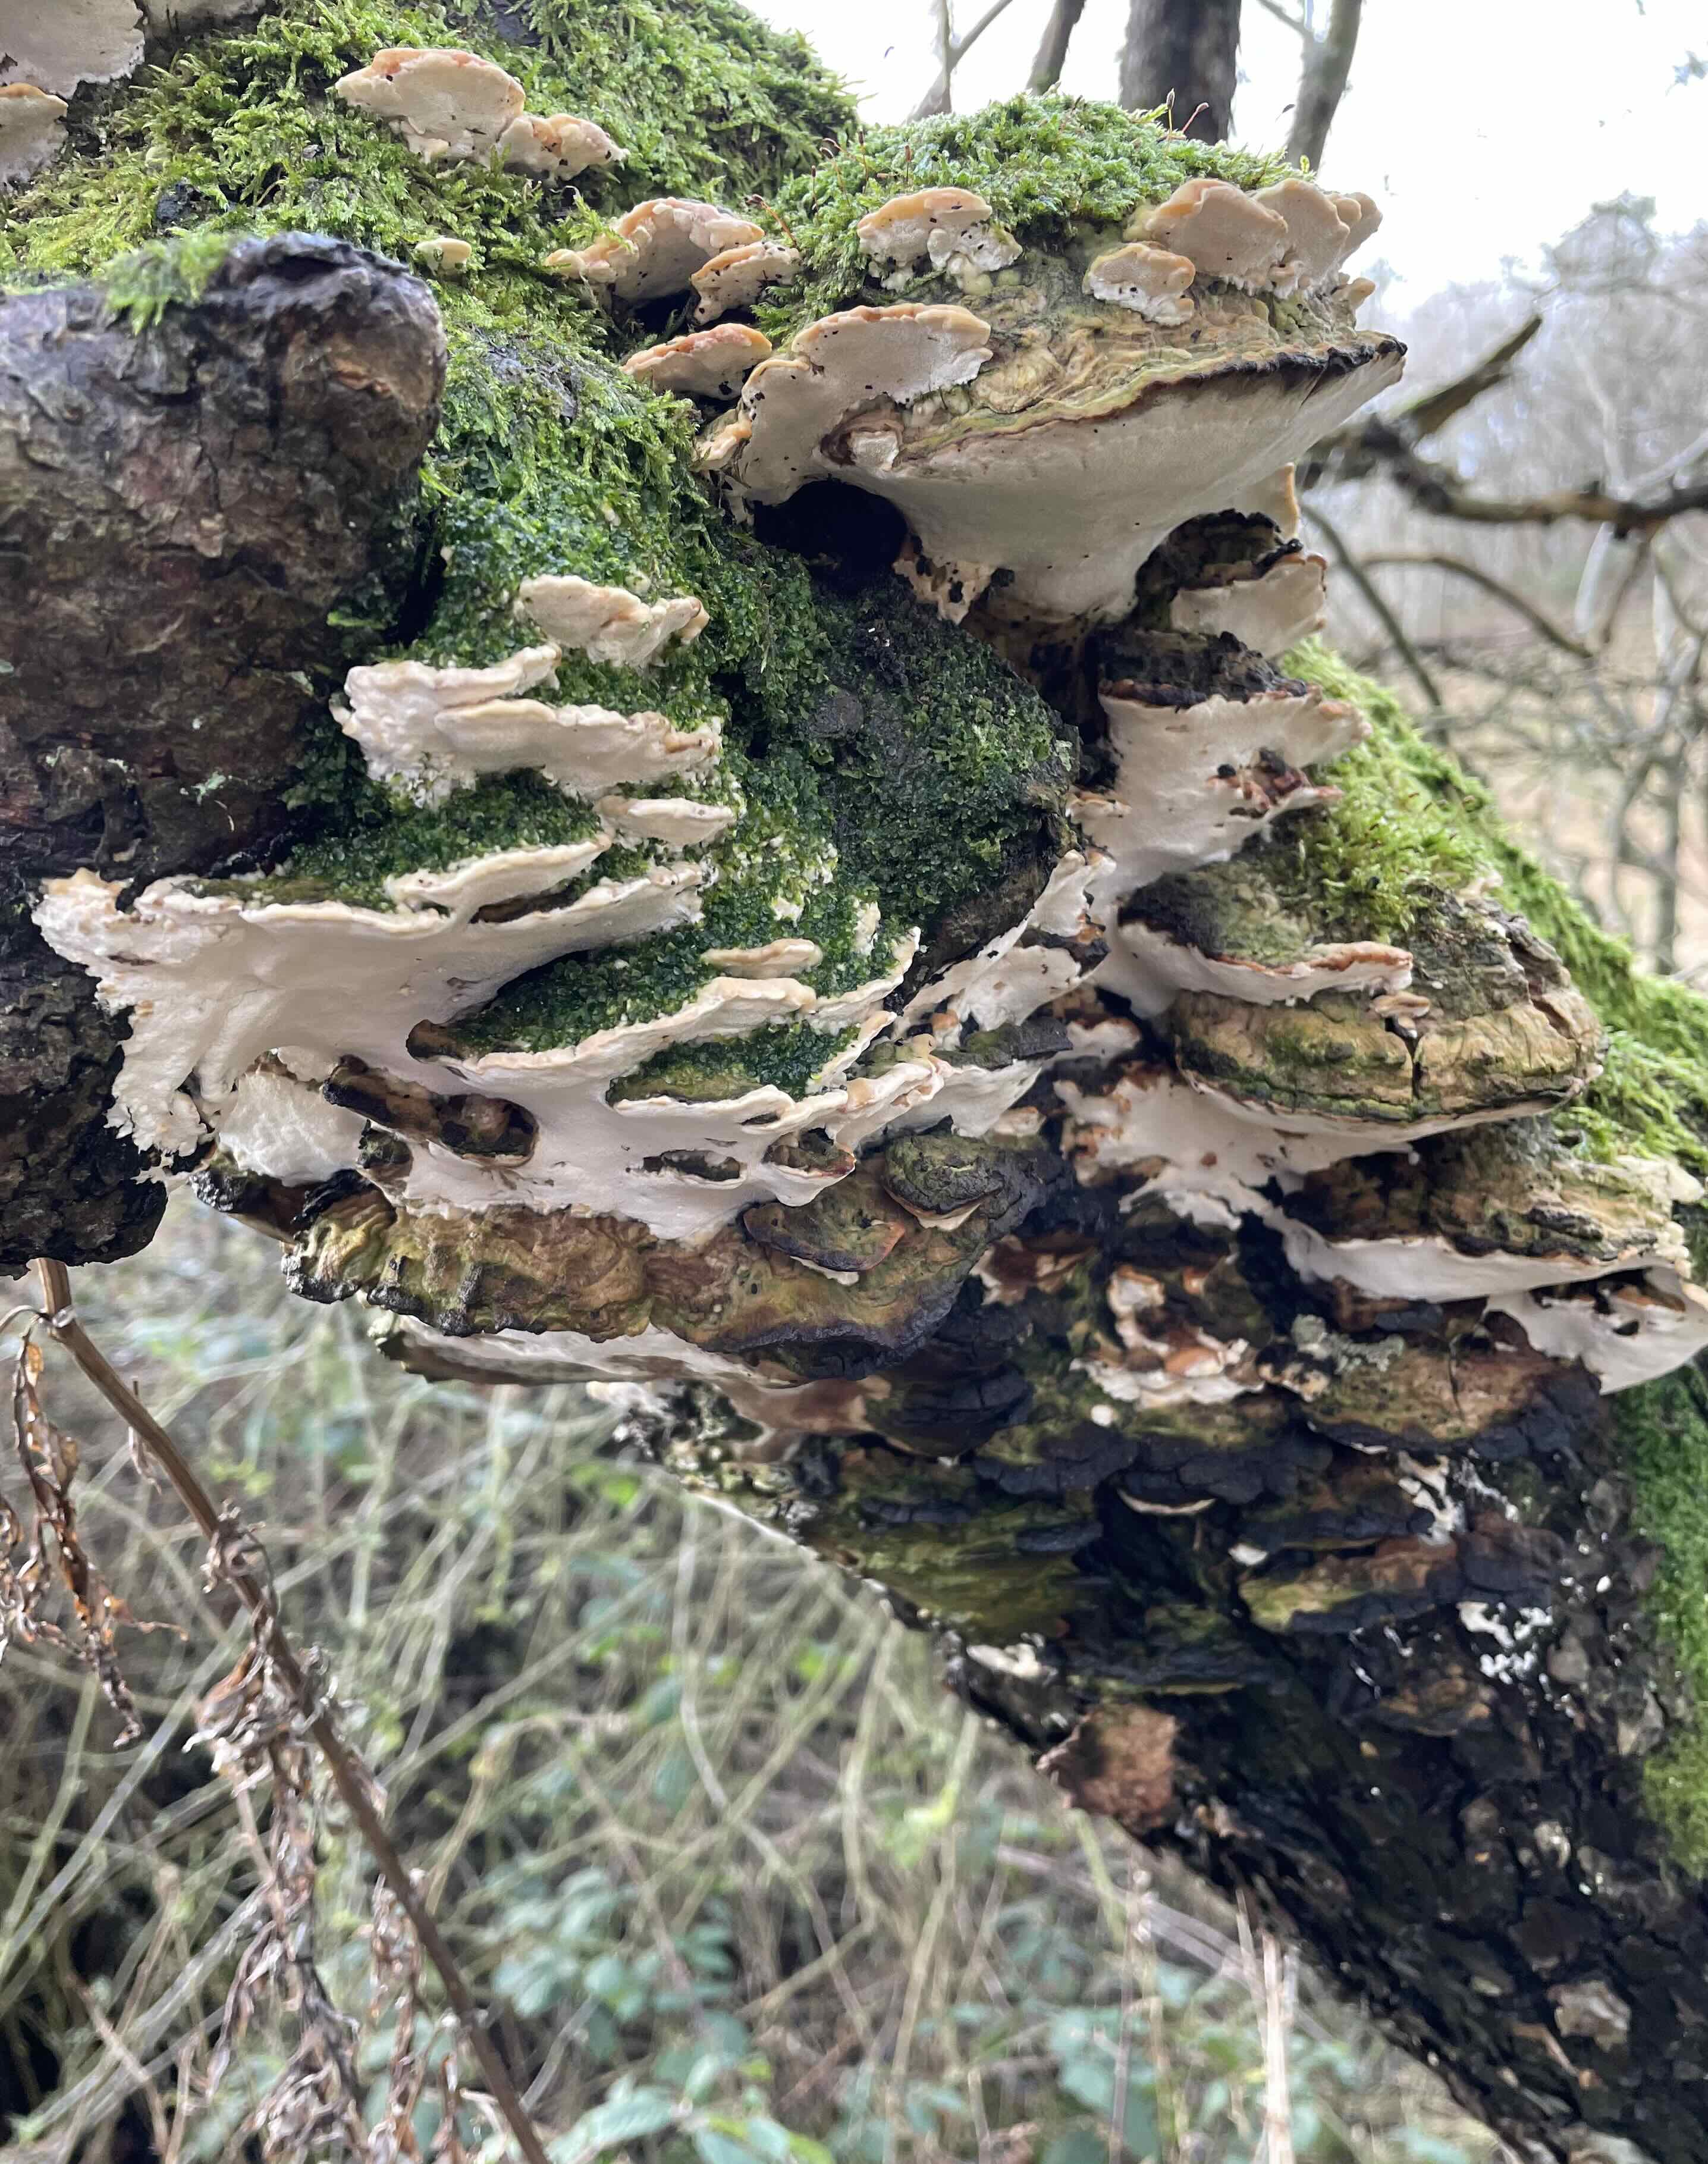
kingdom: Fungi
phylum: Basidiomycota
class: Agaricomycetes
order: Hymenochaetales
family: Oxyporaceae
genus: Oxyporus
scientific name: Oxyporus populinus
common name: sammenvokset trylleporesvamp
